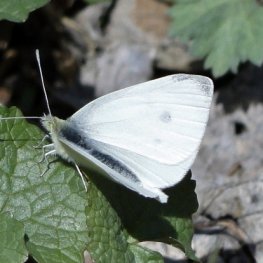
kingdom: Animalia
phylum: Arthropoda
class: Insecta
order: Lepidoptera
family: Pieridae
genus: Pieris
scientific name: Pieris rapae
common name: Cabbage White
